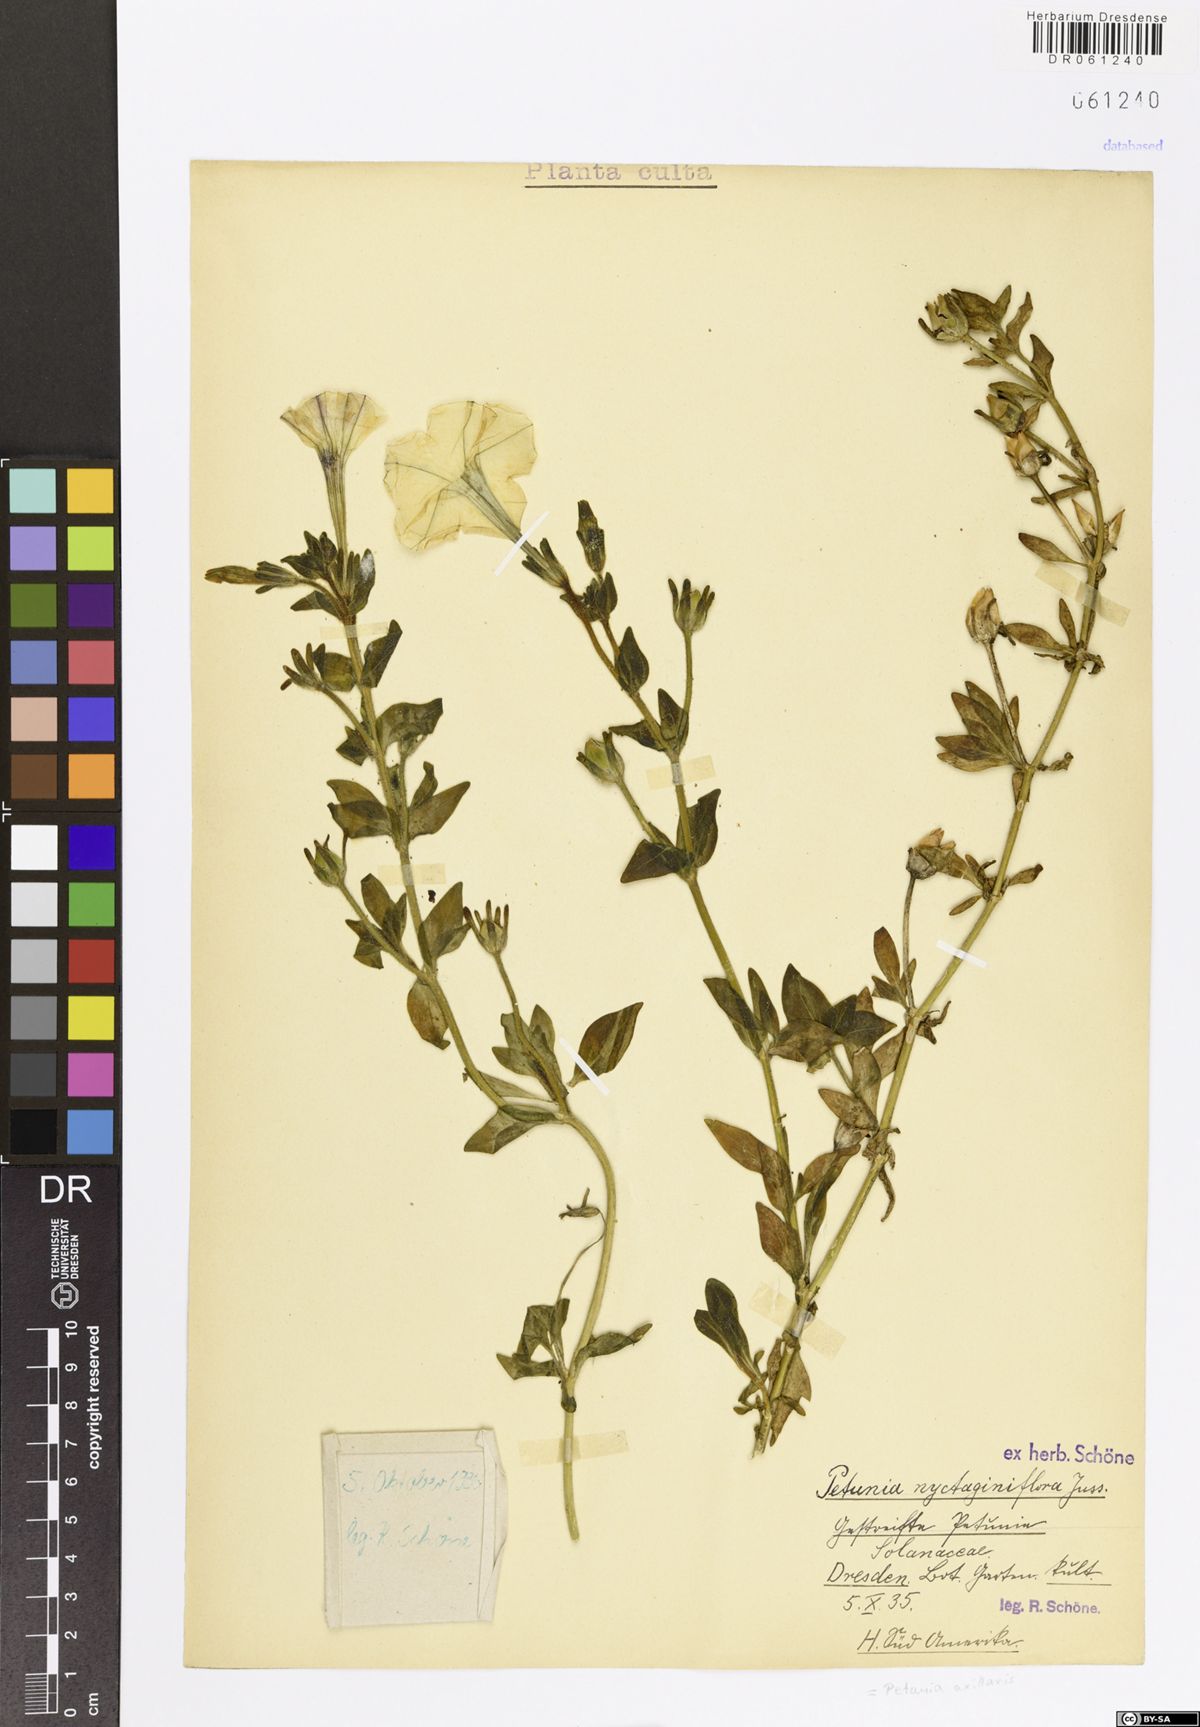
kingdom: Plantae
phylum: Tracheophyta
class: Magnoliopsida
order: Solanales
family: Solanaceae
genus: Petunia
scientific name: Petunia axillaris
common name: Large white petunia
